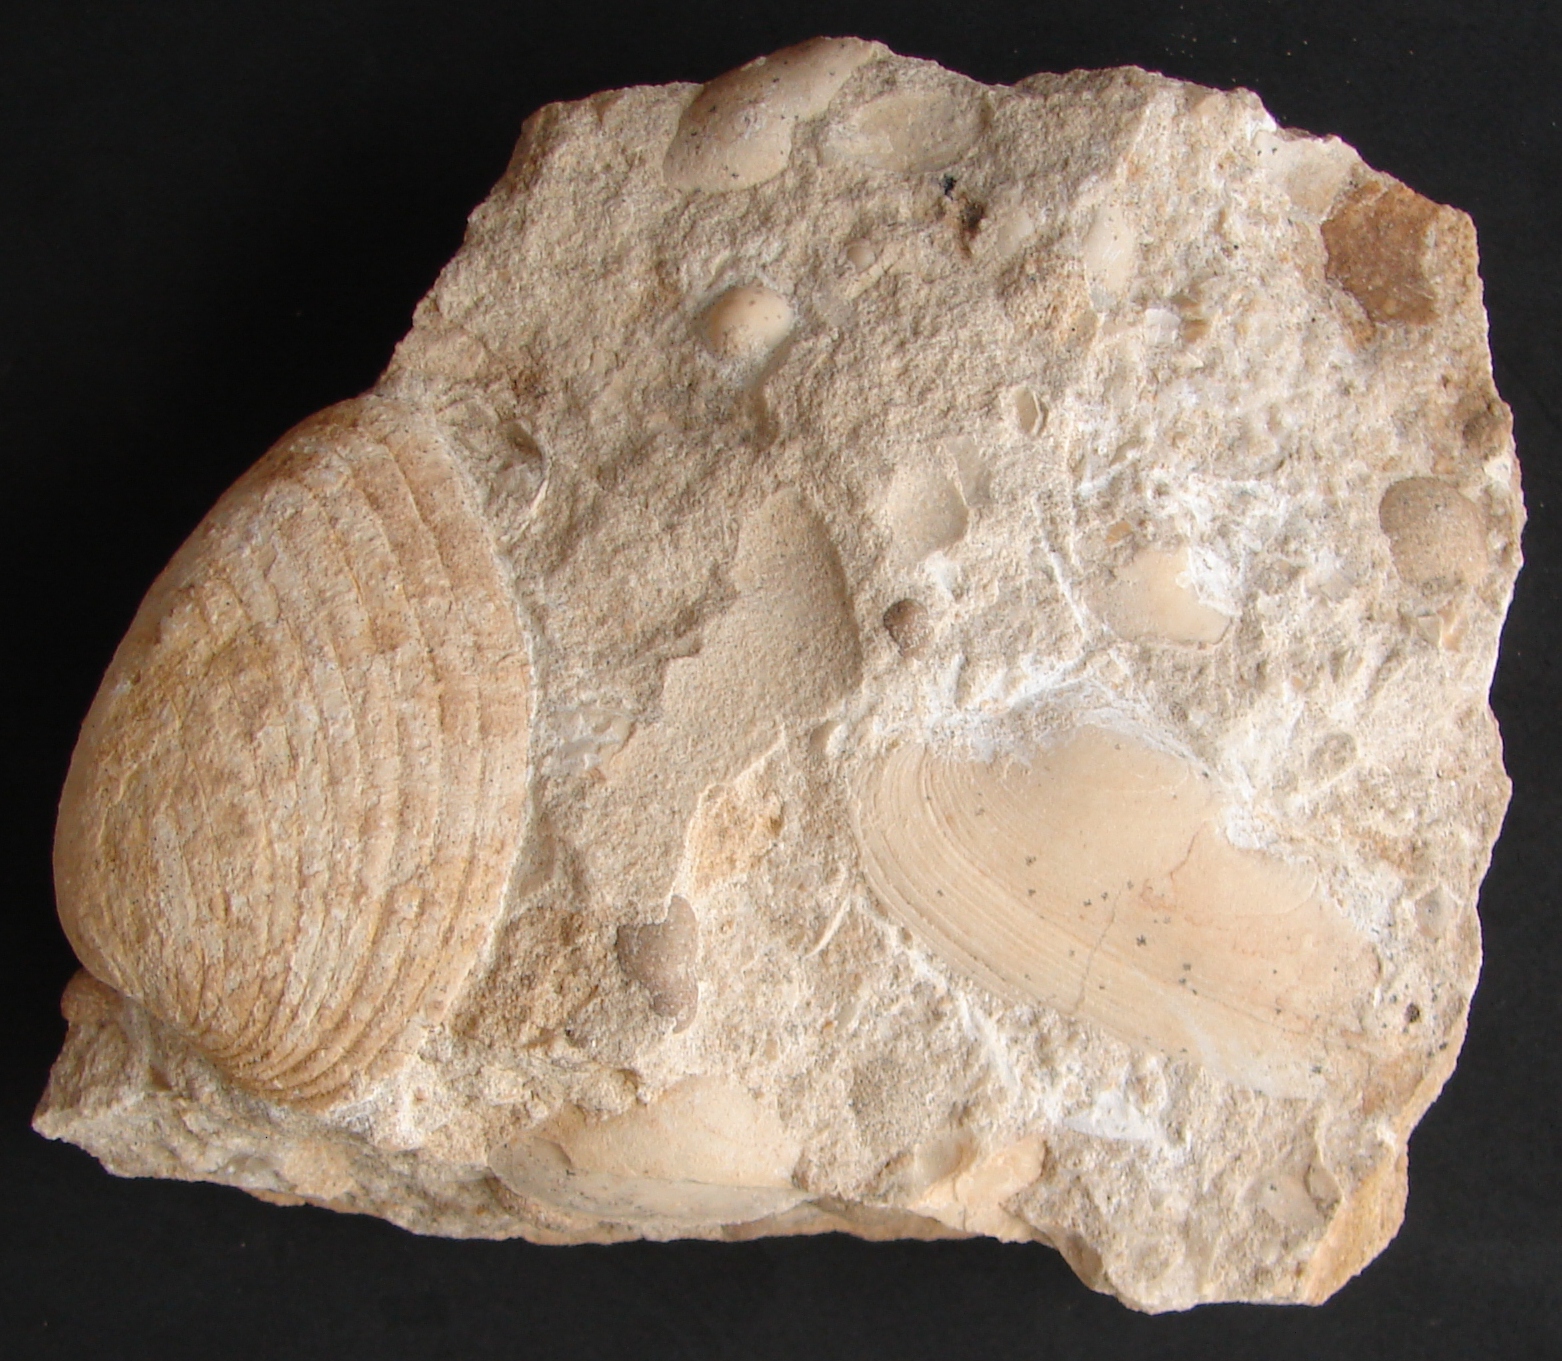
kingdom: Animalia
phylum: Mollusca
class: Bivalvia
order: Carditida
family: Cardiniidae
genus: Cardinia
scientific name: Cardinia
